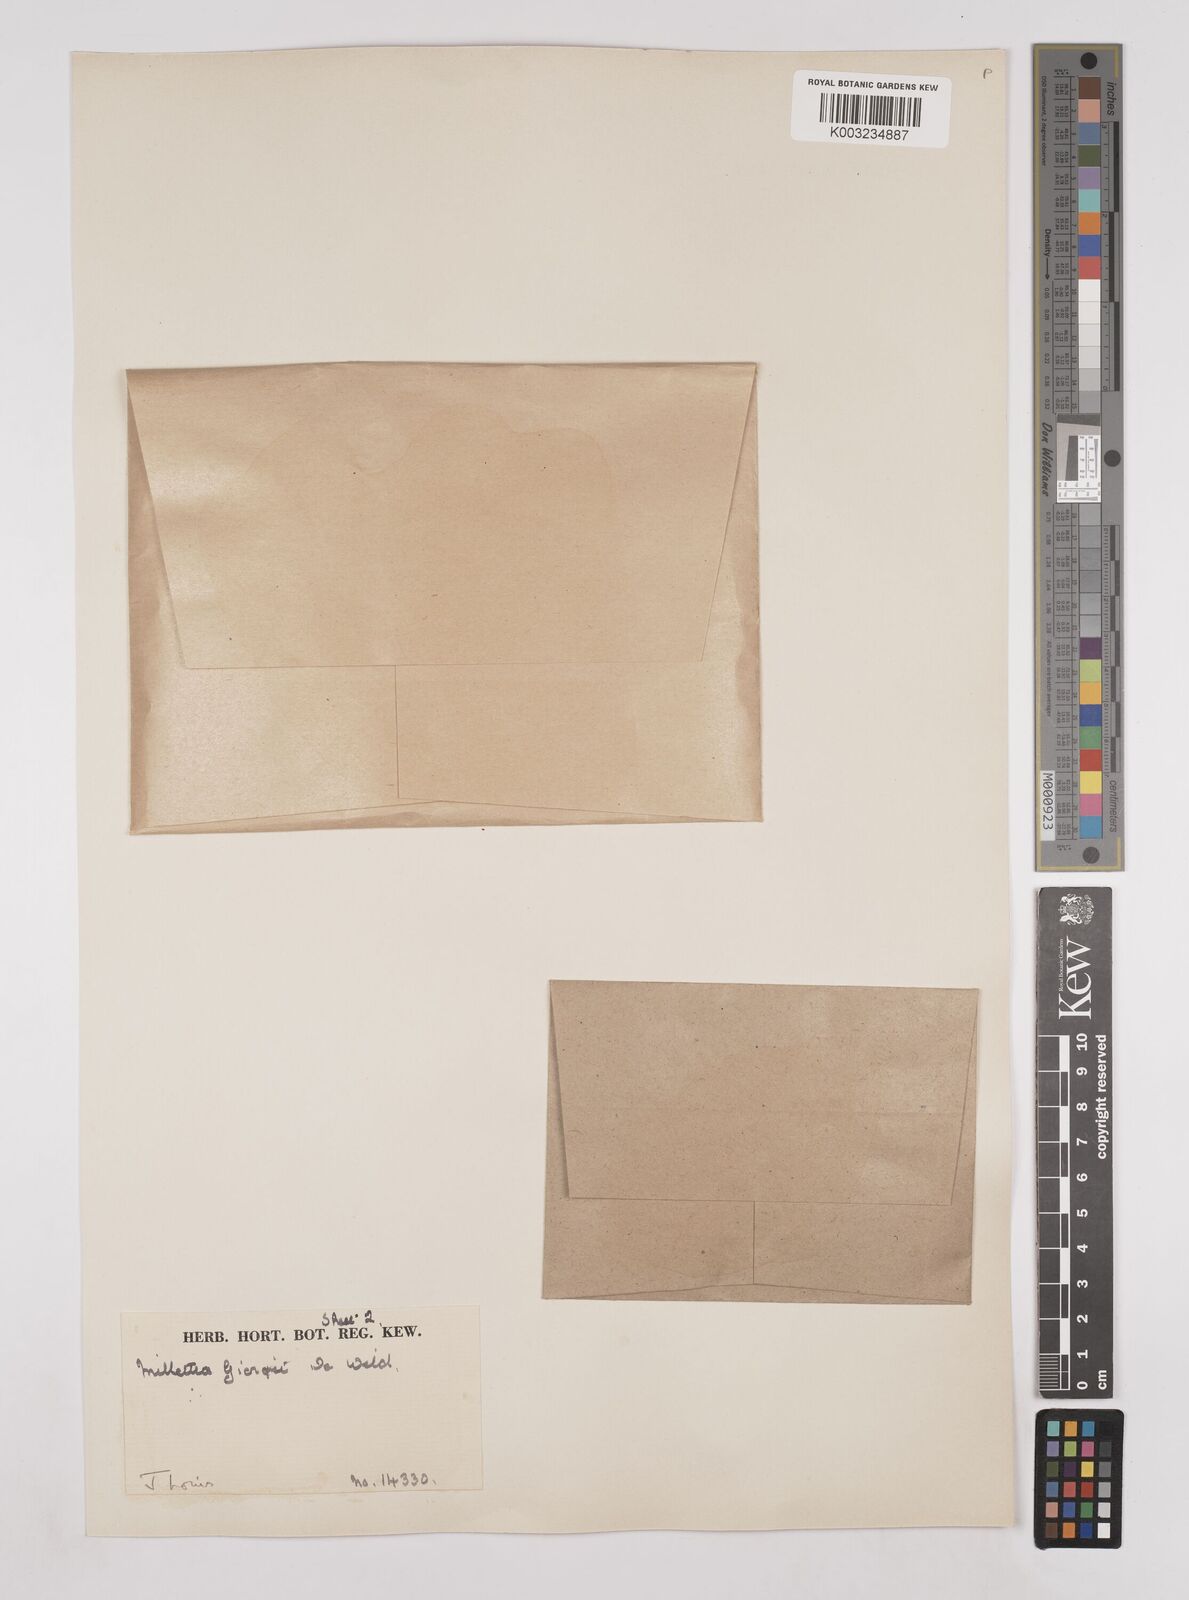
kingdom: Plantae
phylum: Tracheophyta
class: Magnoliopsida
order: Fabales
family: Fabaceae
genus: Millettia
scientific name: Millettia drastica
